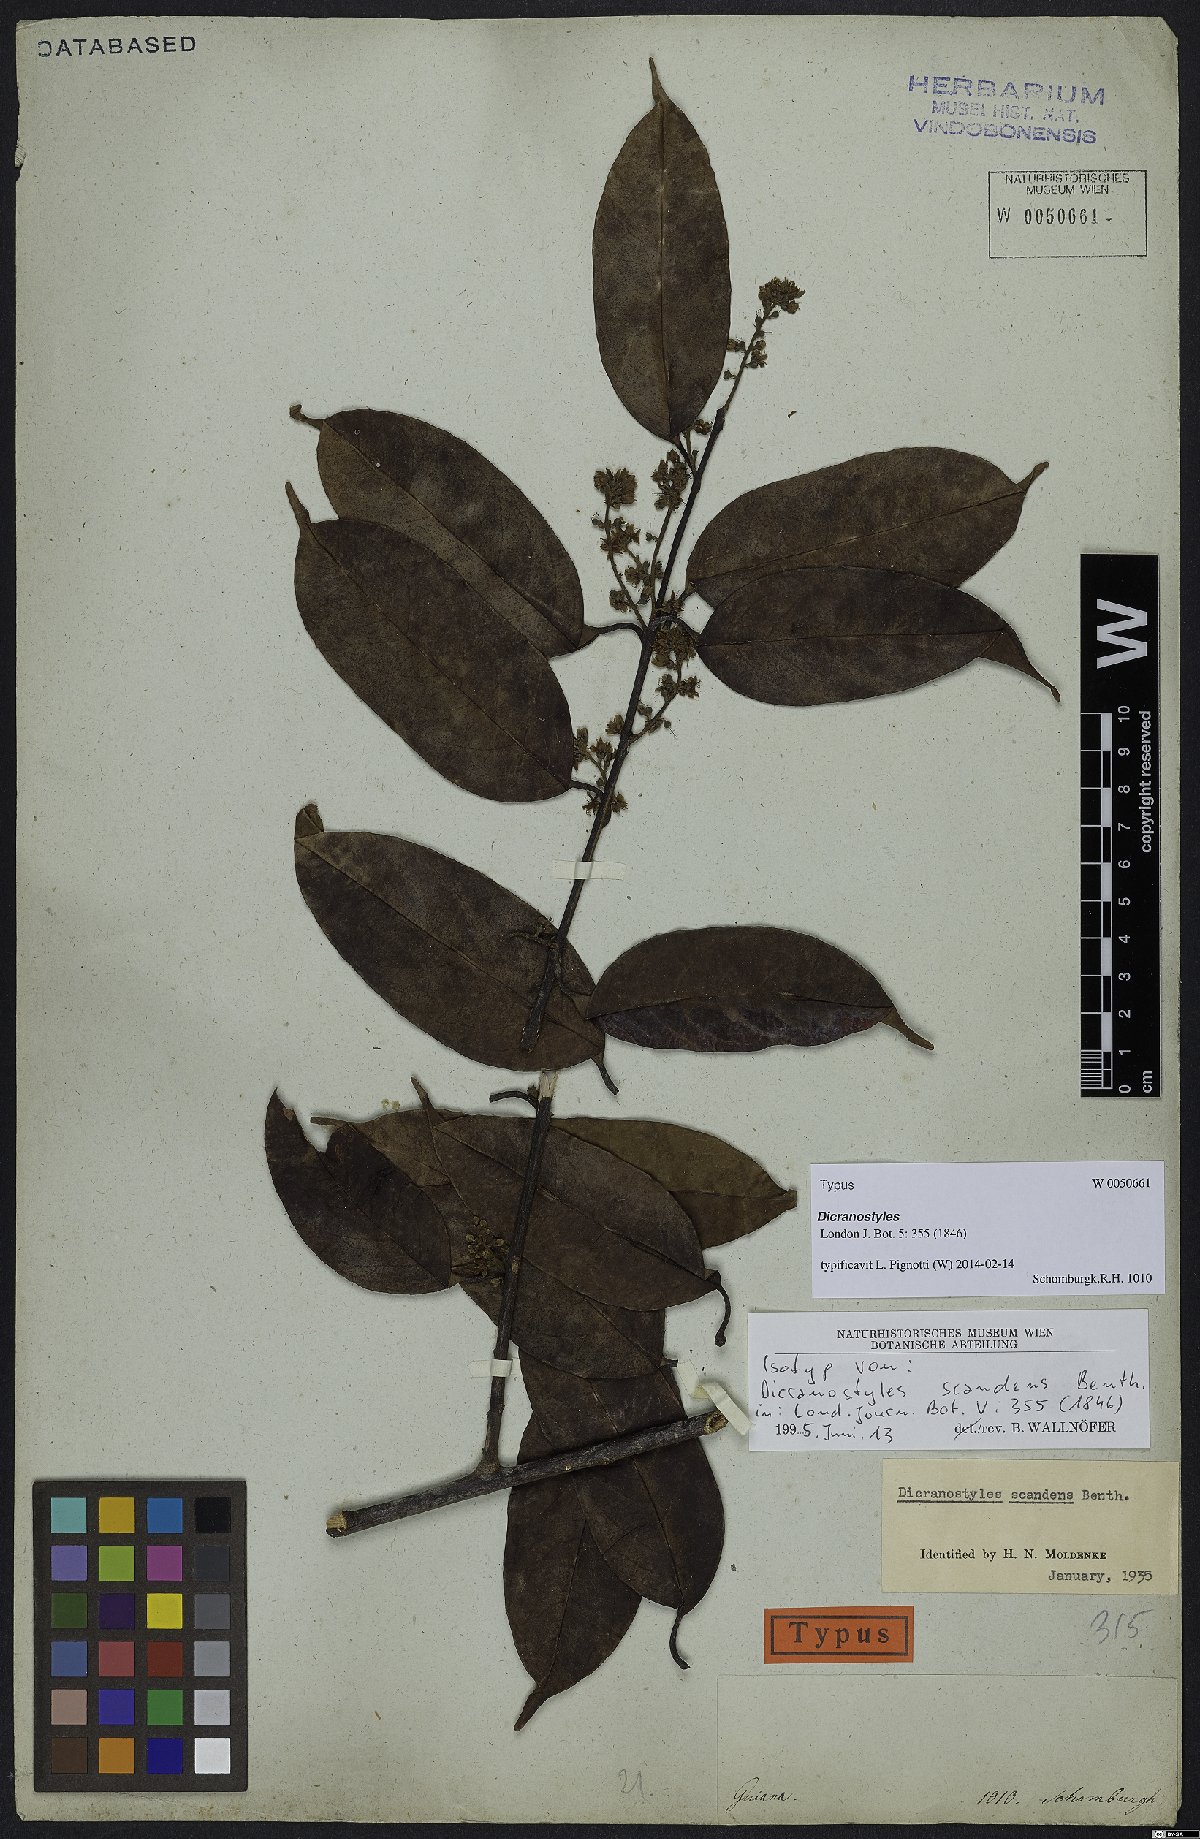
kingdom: Plantae
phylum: Tracheophyta
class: Magnoliopsida
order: Solanales
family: Convolvulaceae
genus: Dicranostyles
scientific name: Dicranostyles scandens
